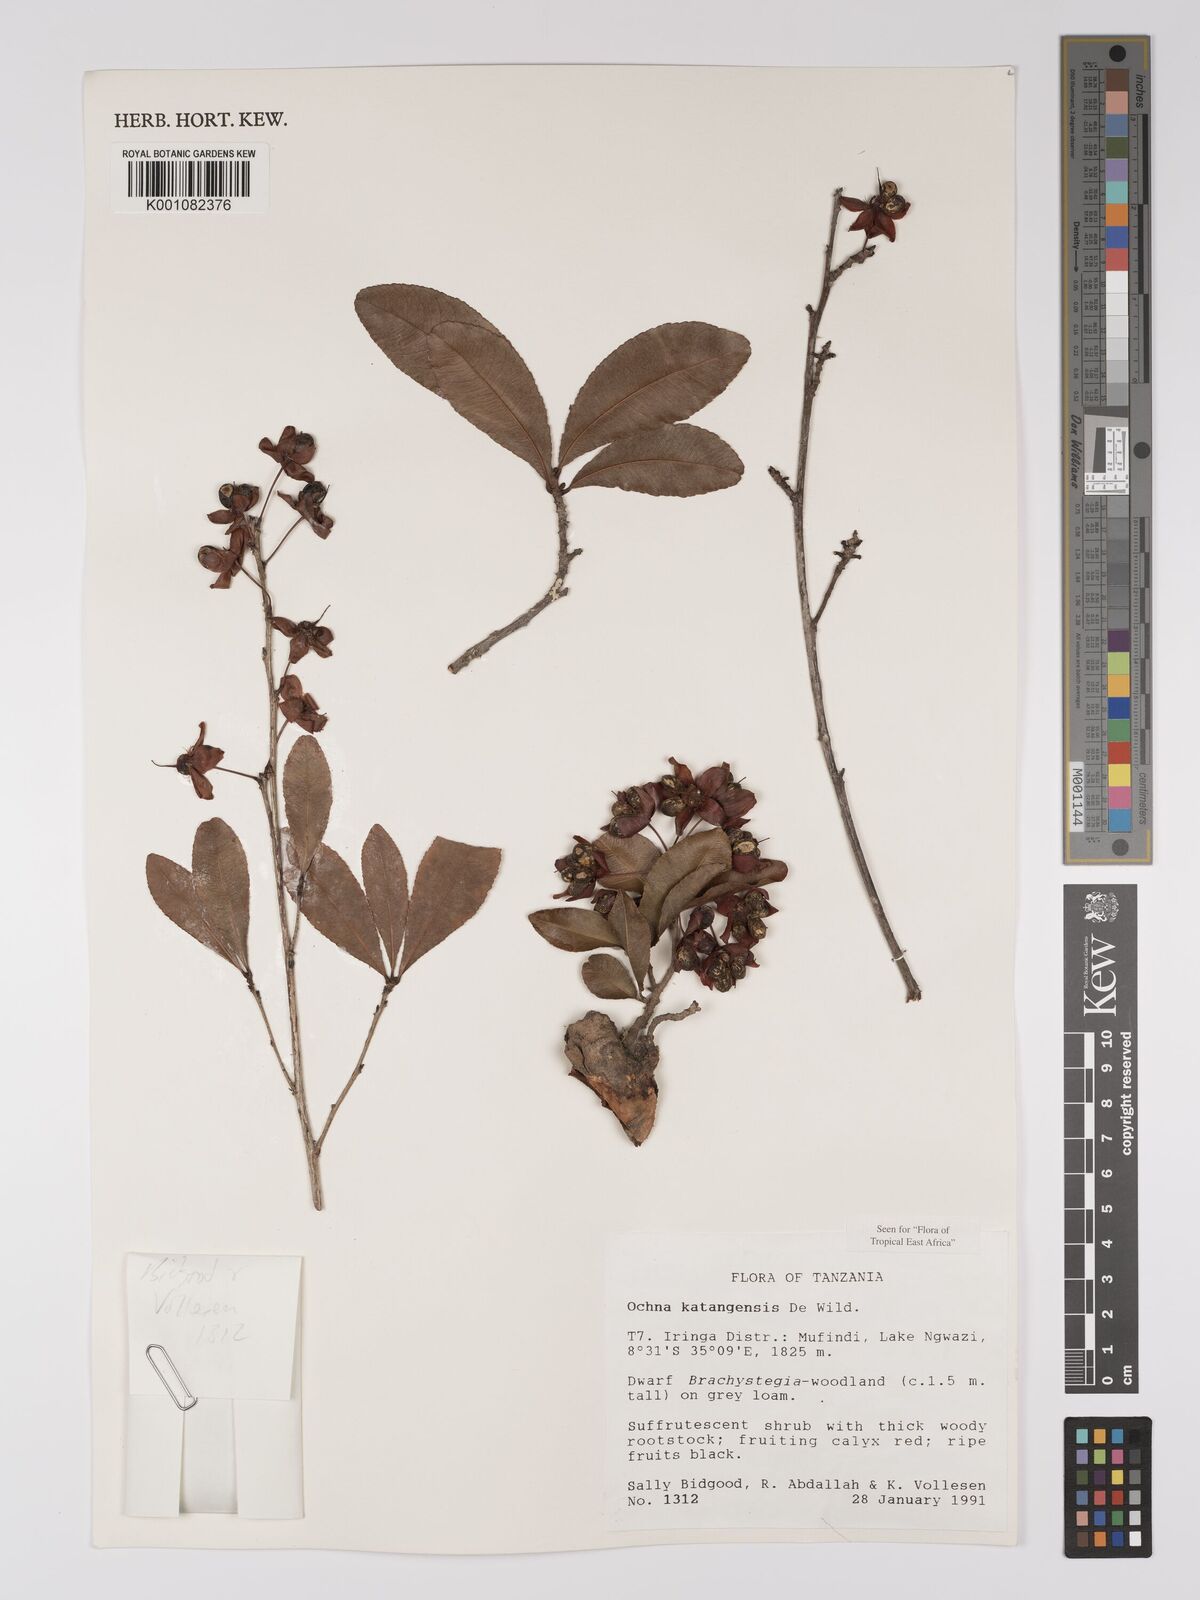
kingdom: Plantae
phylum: Tracheophyta
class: Magnoliopsida
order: Malpighiales
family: Ochnaceae
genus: Ochna
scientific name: Ochna katangensis
